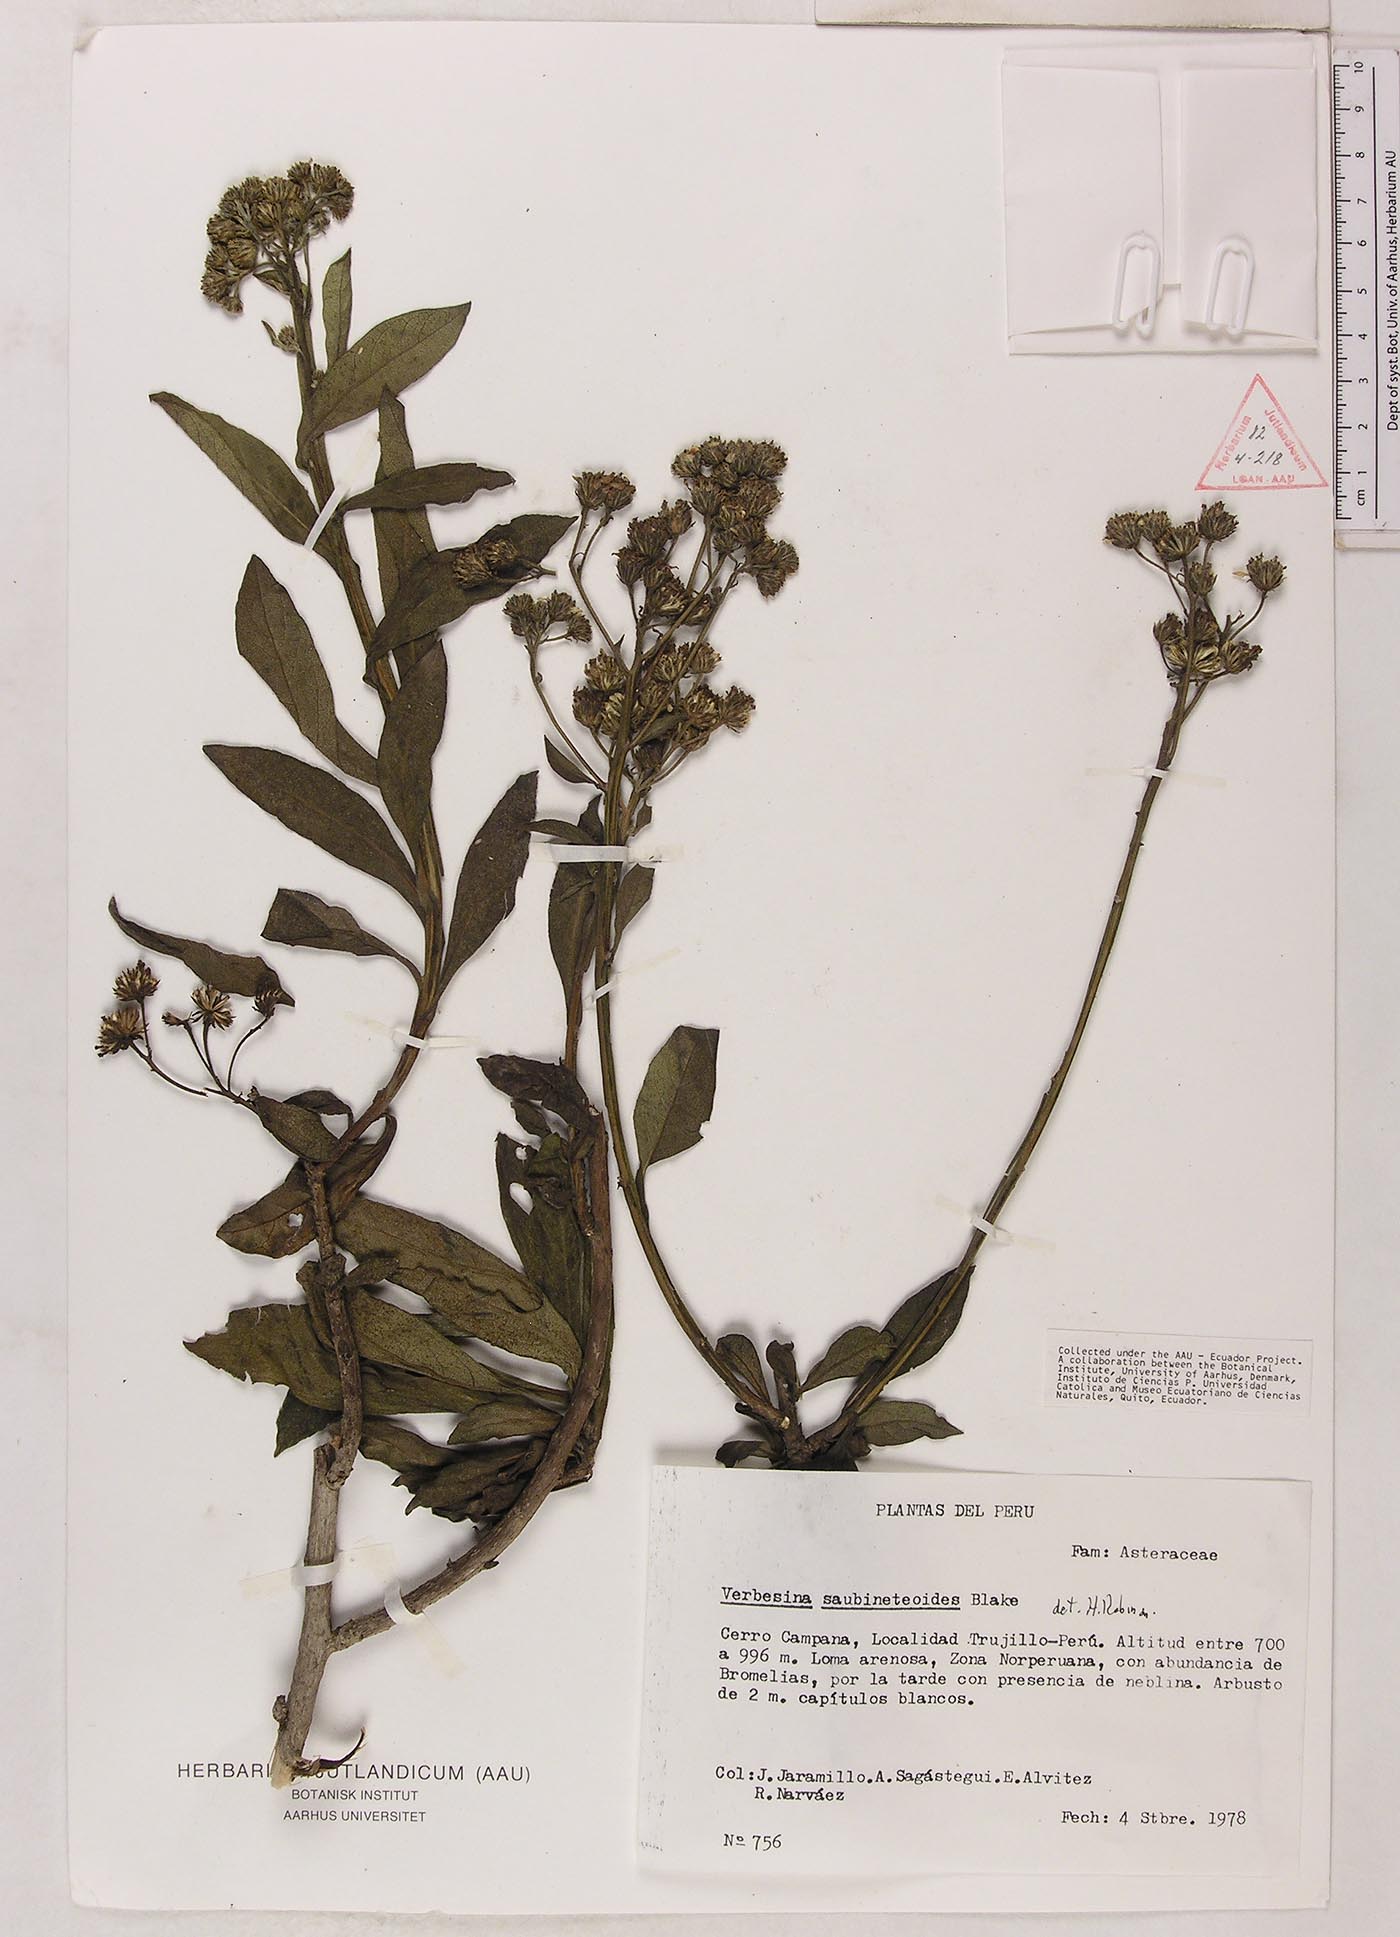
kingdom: Plantae
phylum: Tracheophyta
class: Magnoliopsida
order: Asterales
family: Asteraceae
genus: Verbesina
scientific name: Verbesina saubinetioides
